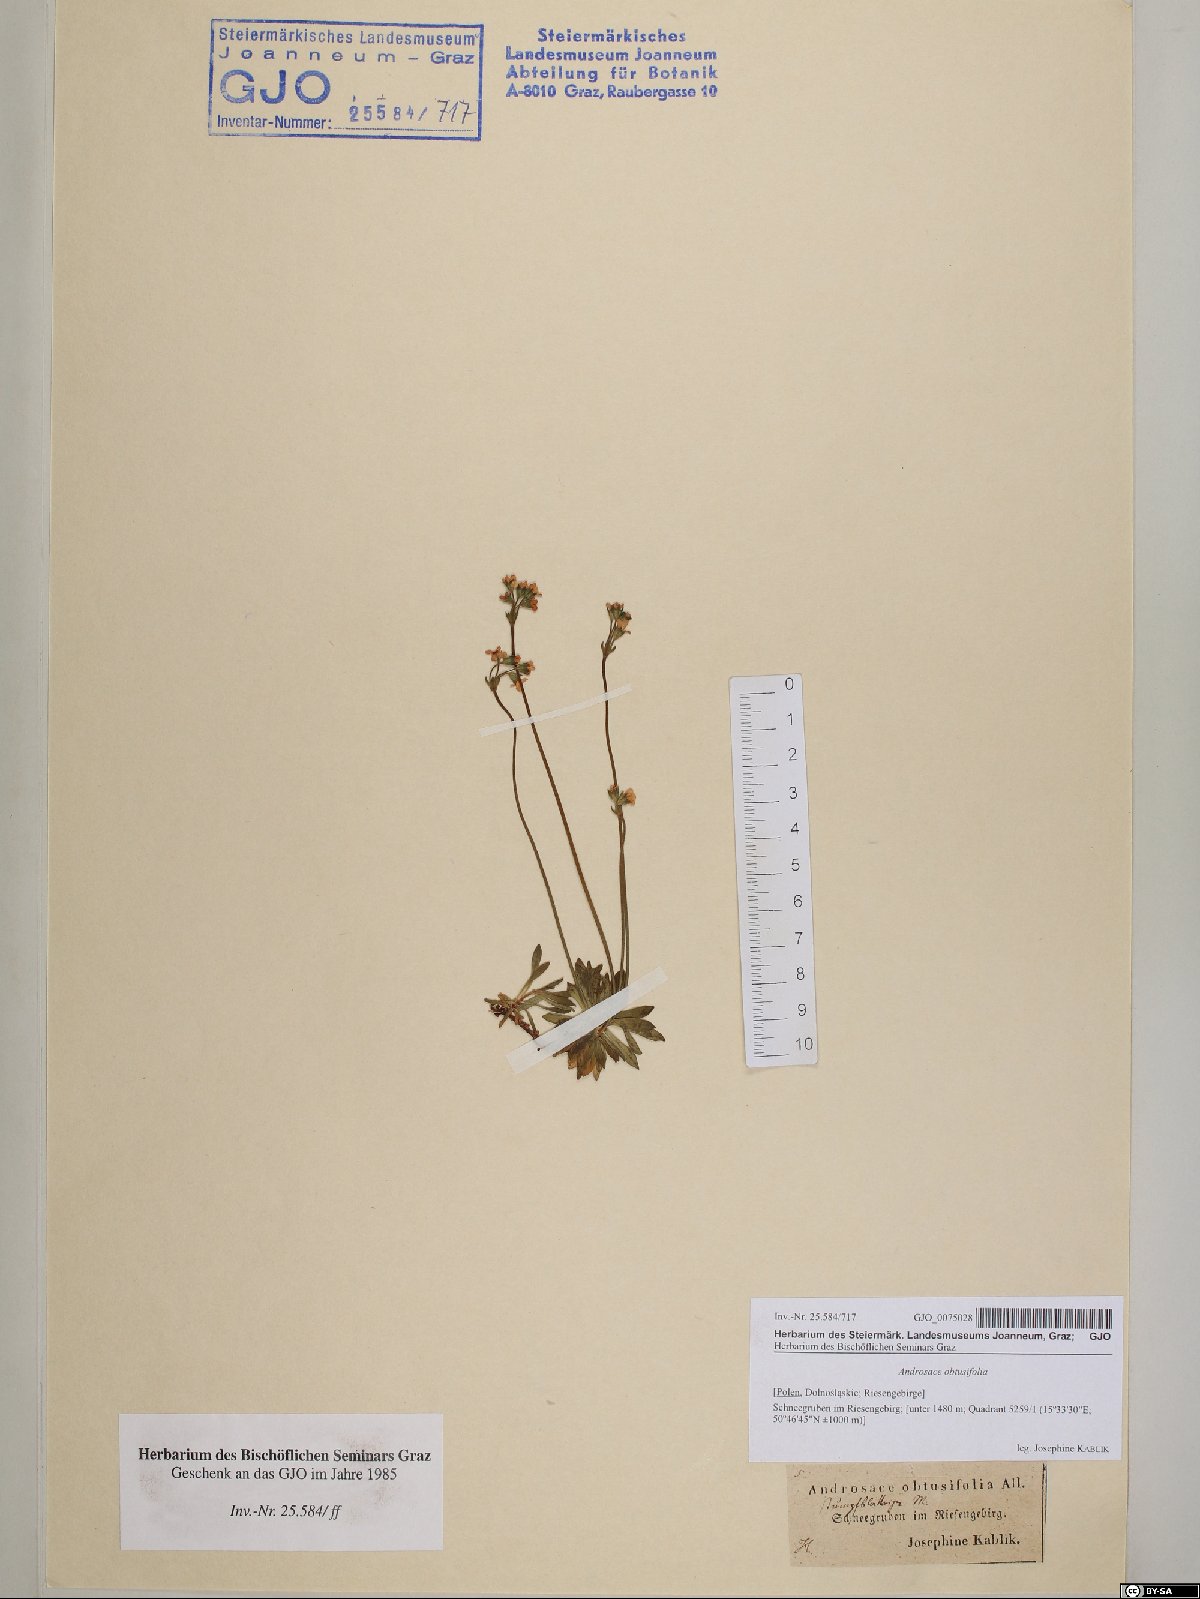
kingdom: Plantae
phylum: Tracheophyta
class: Magnoliopsida
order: Ericales
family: Primulaceae
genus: Androsace
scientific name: Androsace obtusifolia
